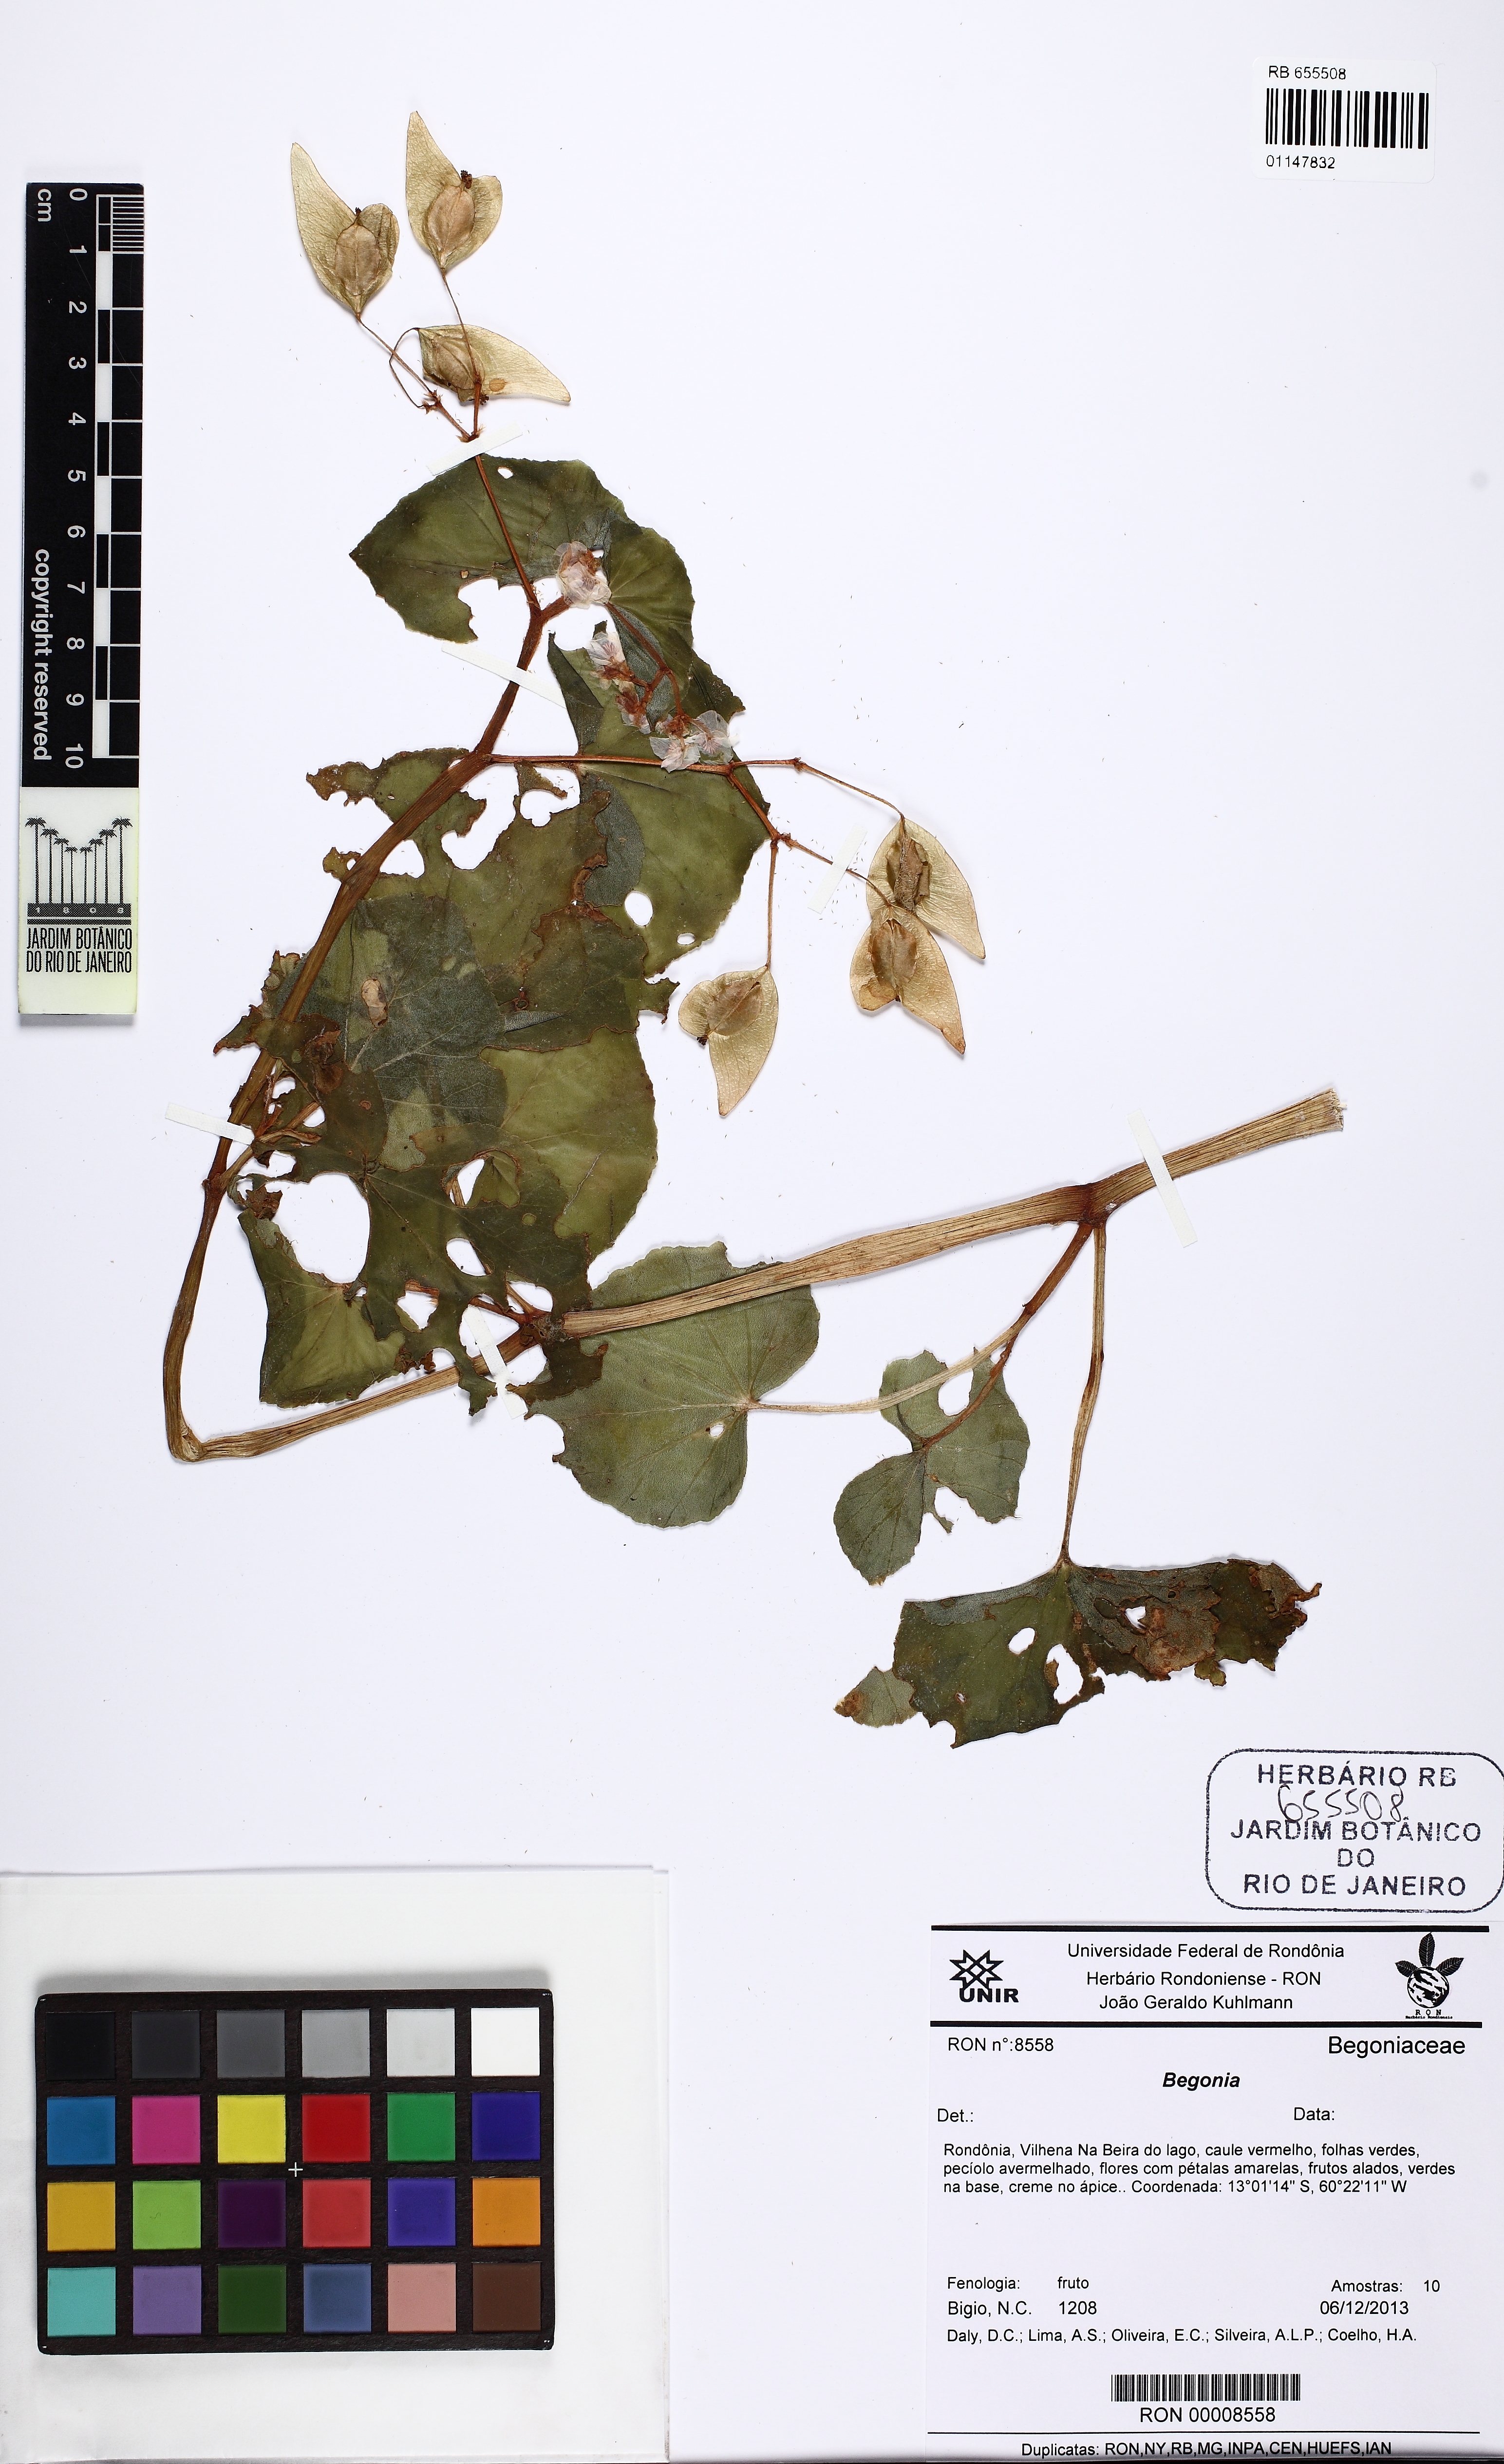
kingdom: Plantae
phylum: Tracheophyta
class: Magnoliopsida
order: Cucurbitales
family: Begoniaceae
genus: Begonia
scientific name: Begonia fischeri
